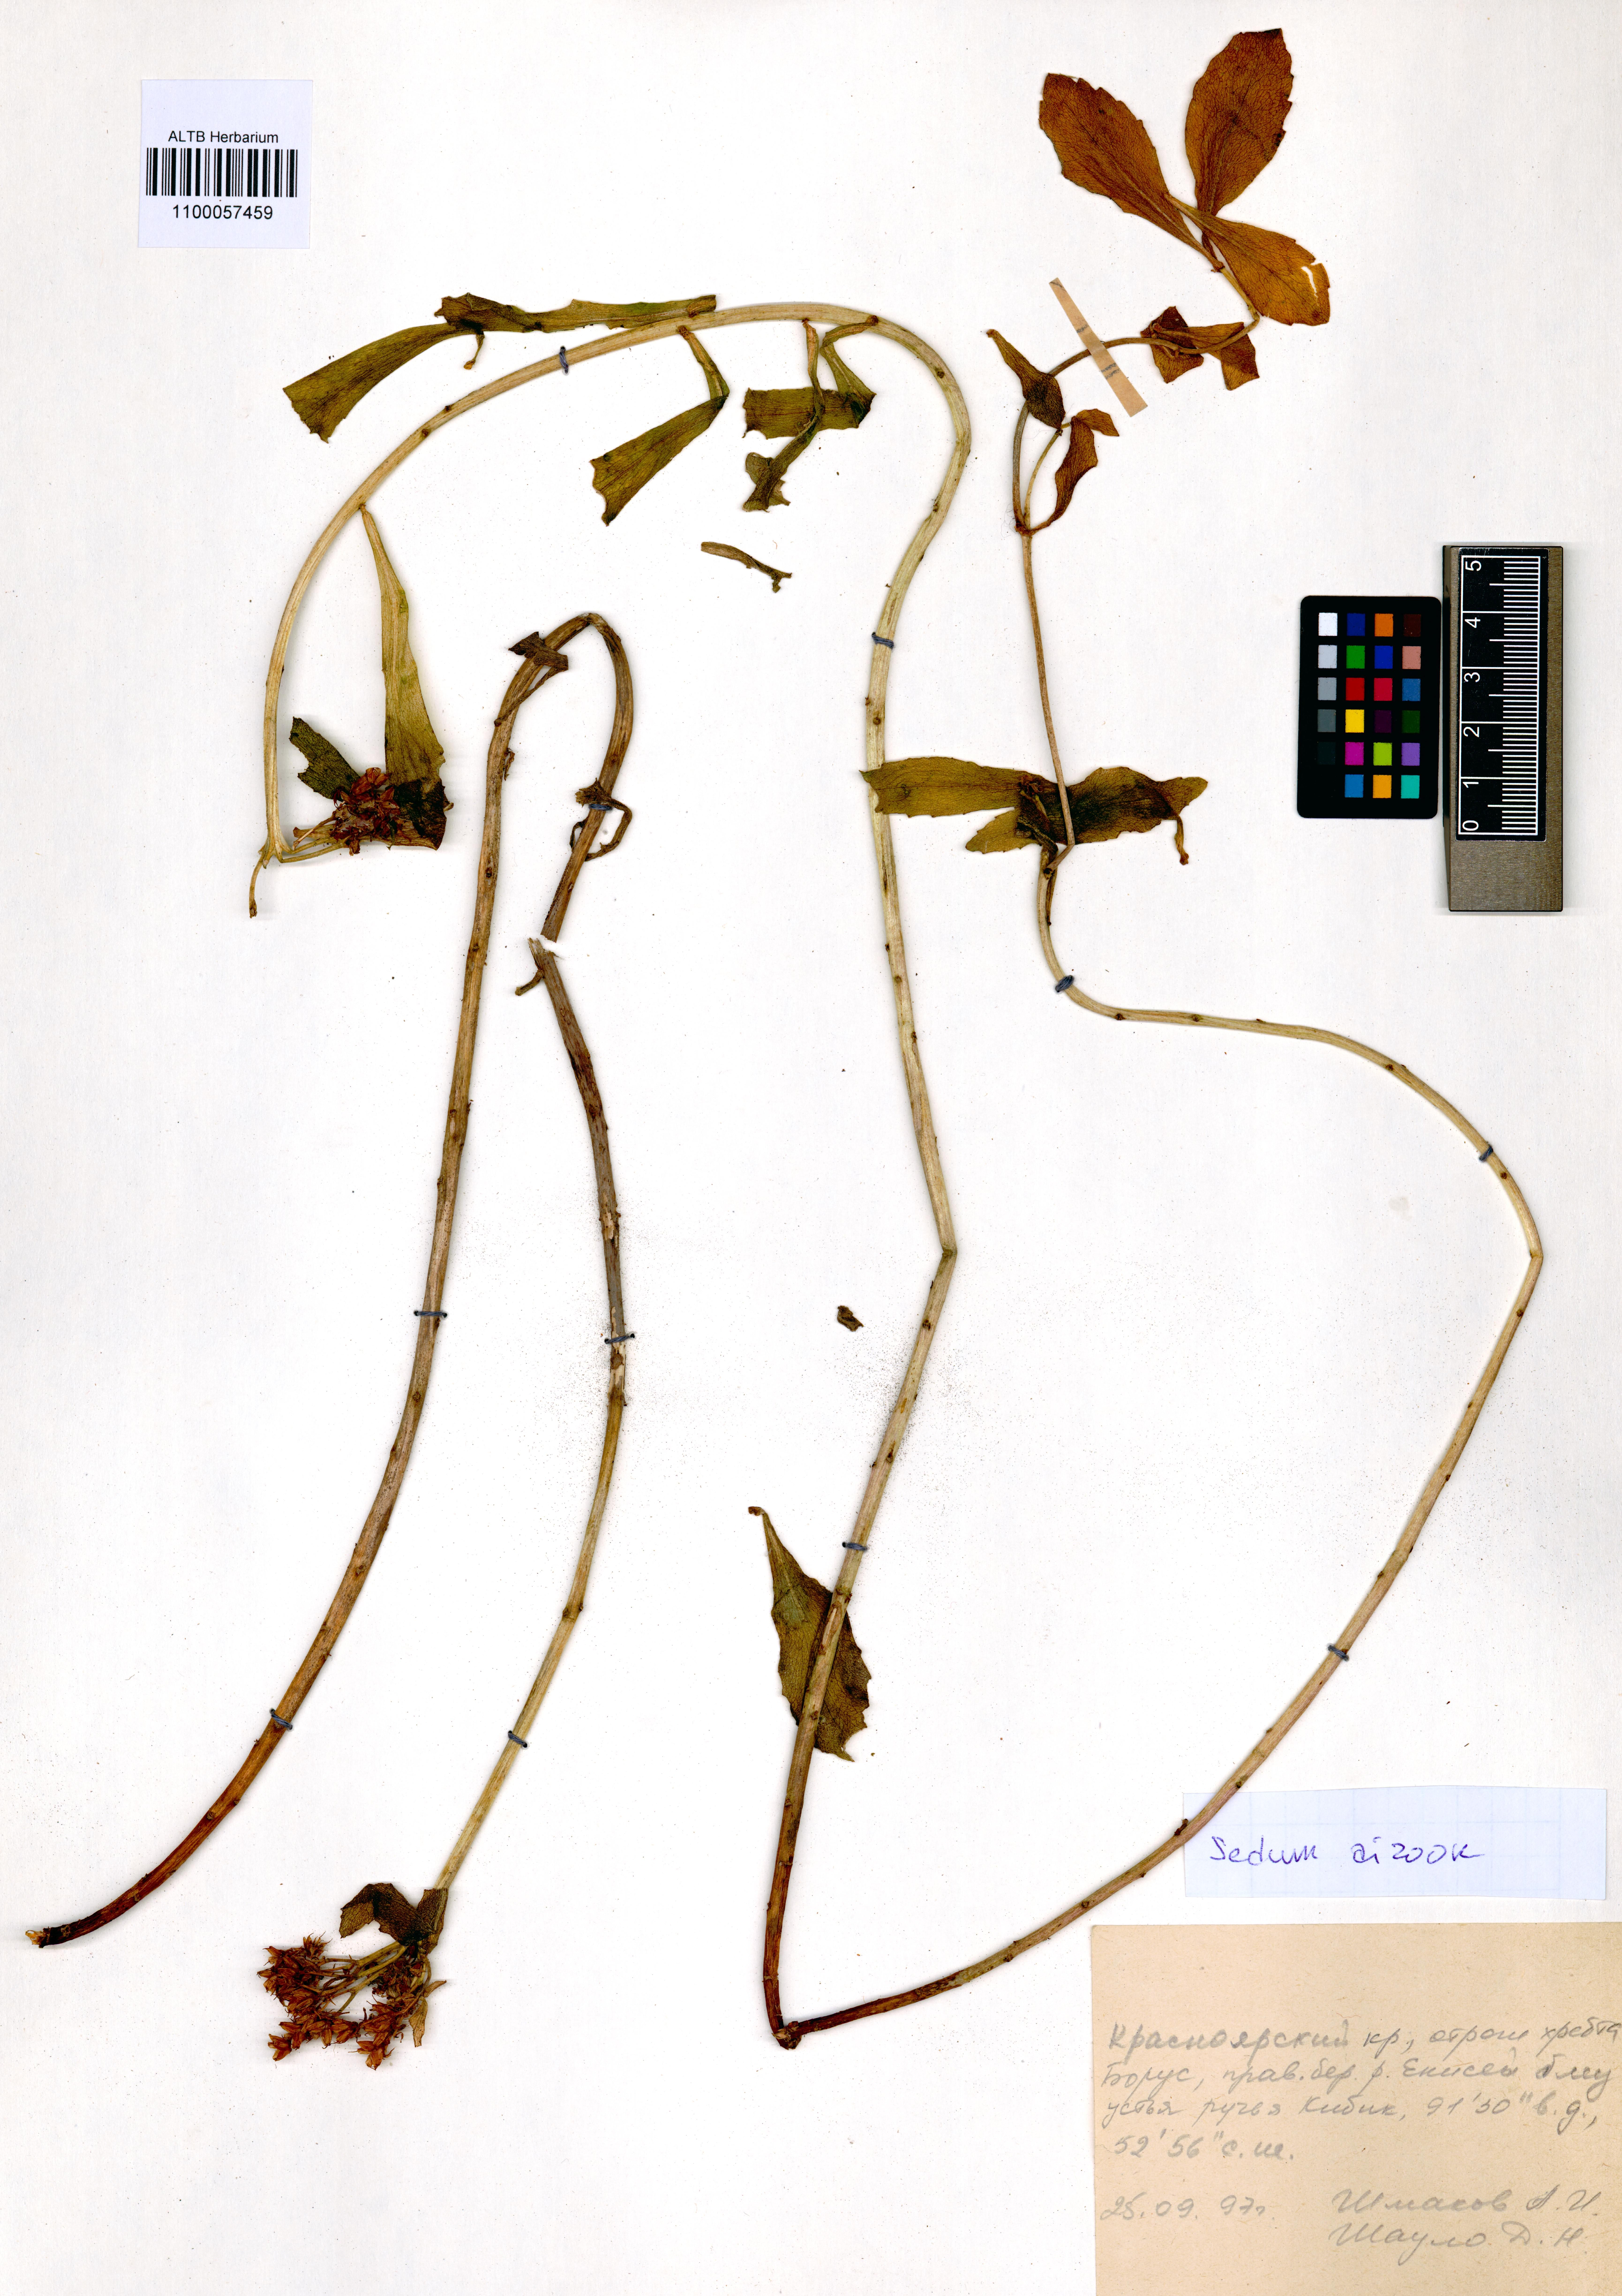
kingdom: Plantae
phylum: Tracheophyta
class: Magnoliopsida
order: Saxifragales
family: Crassulaceae
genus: Phedimus
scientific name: Phedimus aizoon
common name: Orpin aizoon
